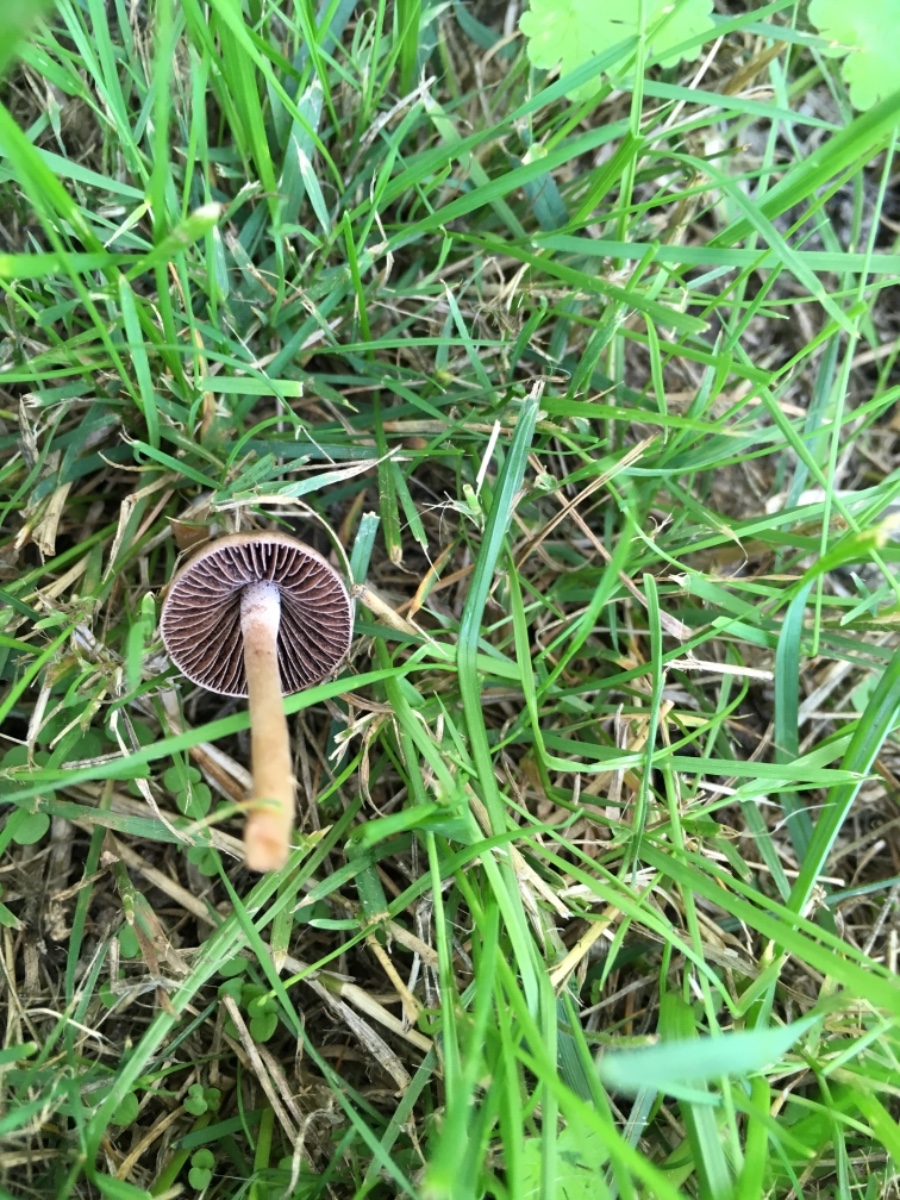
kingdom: Fungi
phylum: Basidiomycota
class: Agaricomycetes
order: Agaricales
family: Bolbitiaceae
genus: Panaeolina
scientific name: Panaeolina foenisecii
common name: høslætsvamp
